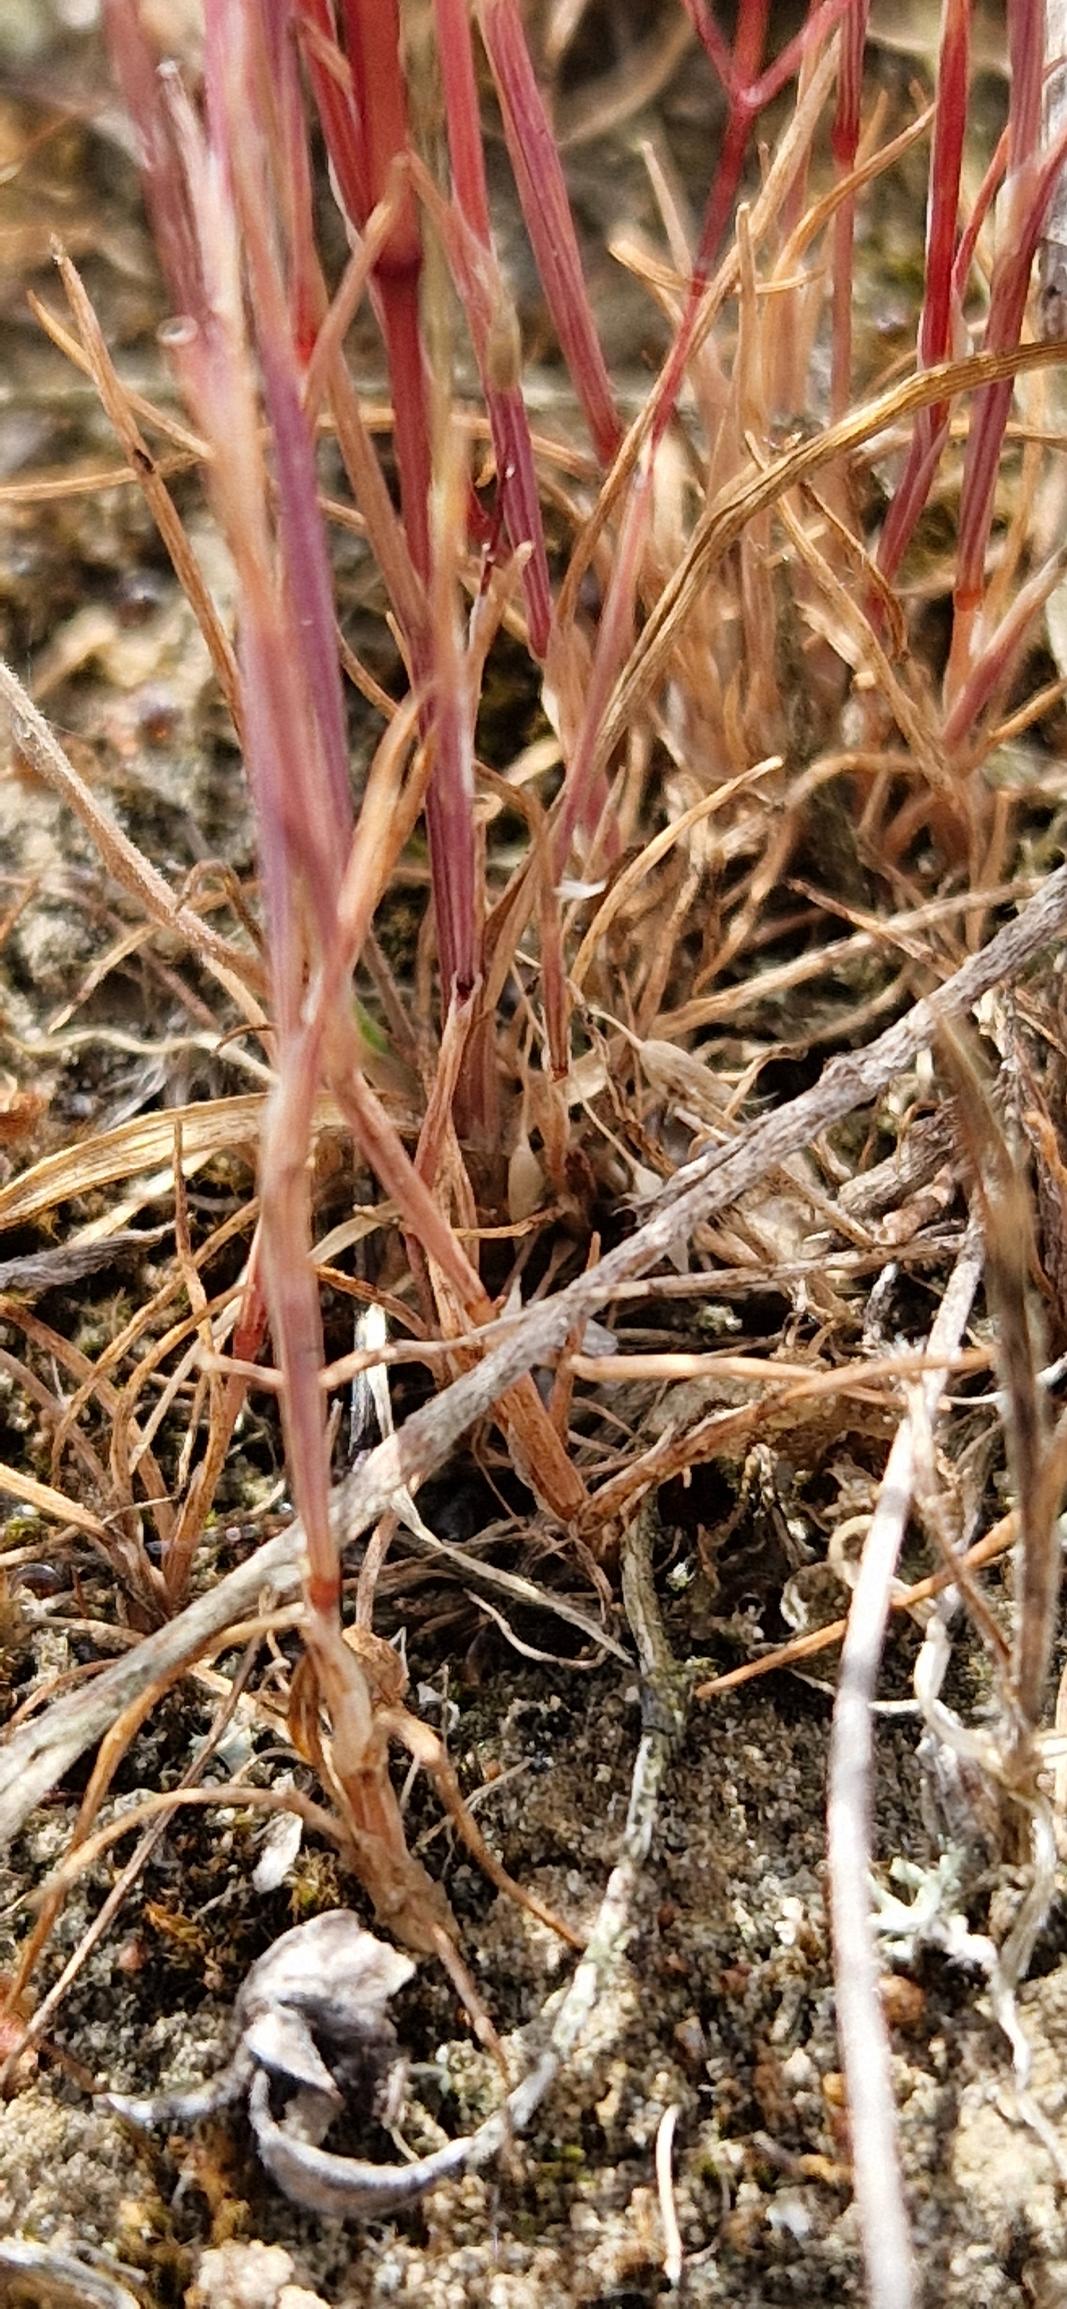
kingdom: Plantae
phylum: Tracheophyta
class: Liliopsida
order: Poales
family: Poaceae
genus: Aira
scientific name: Aira caryophyllea
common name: Udspærret dværgbunke
